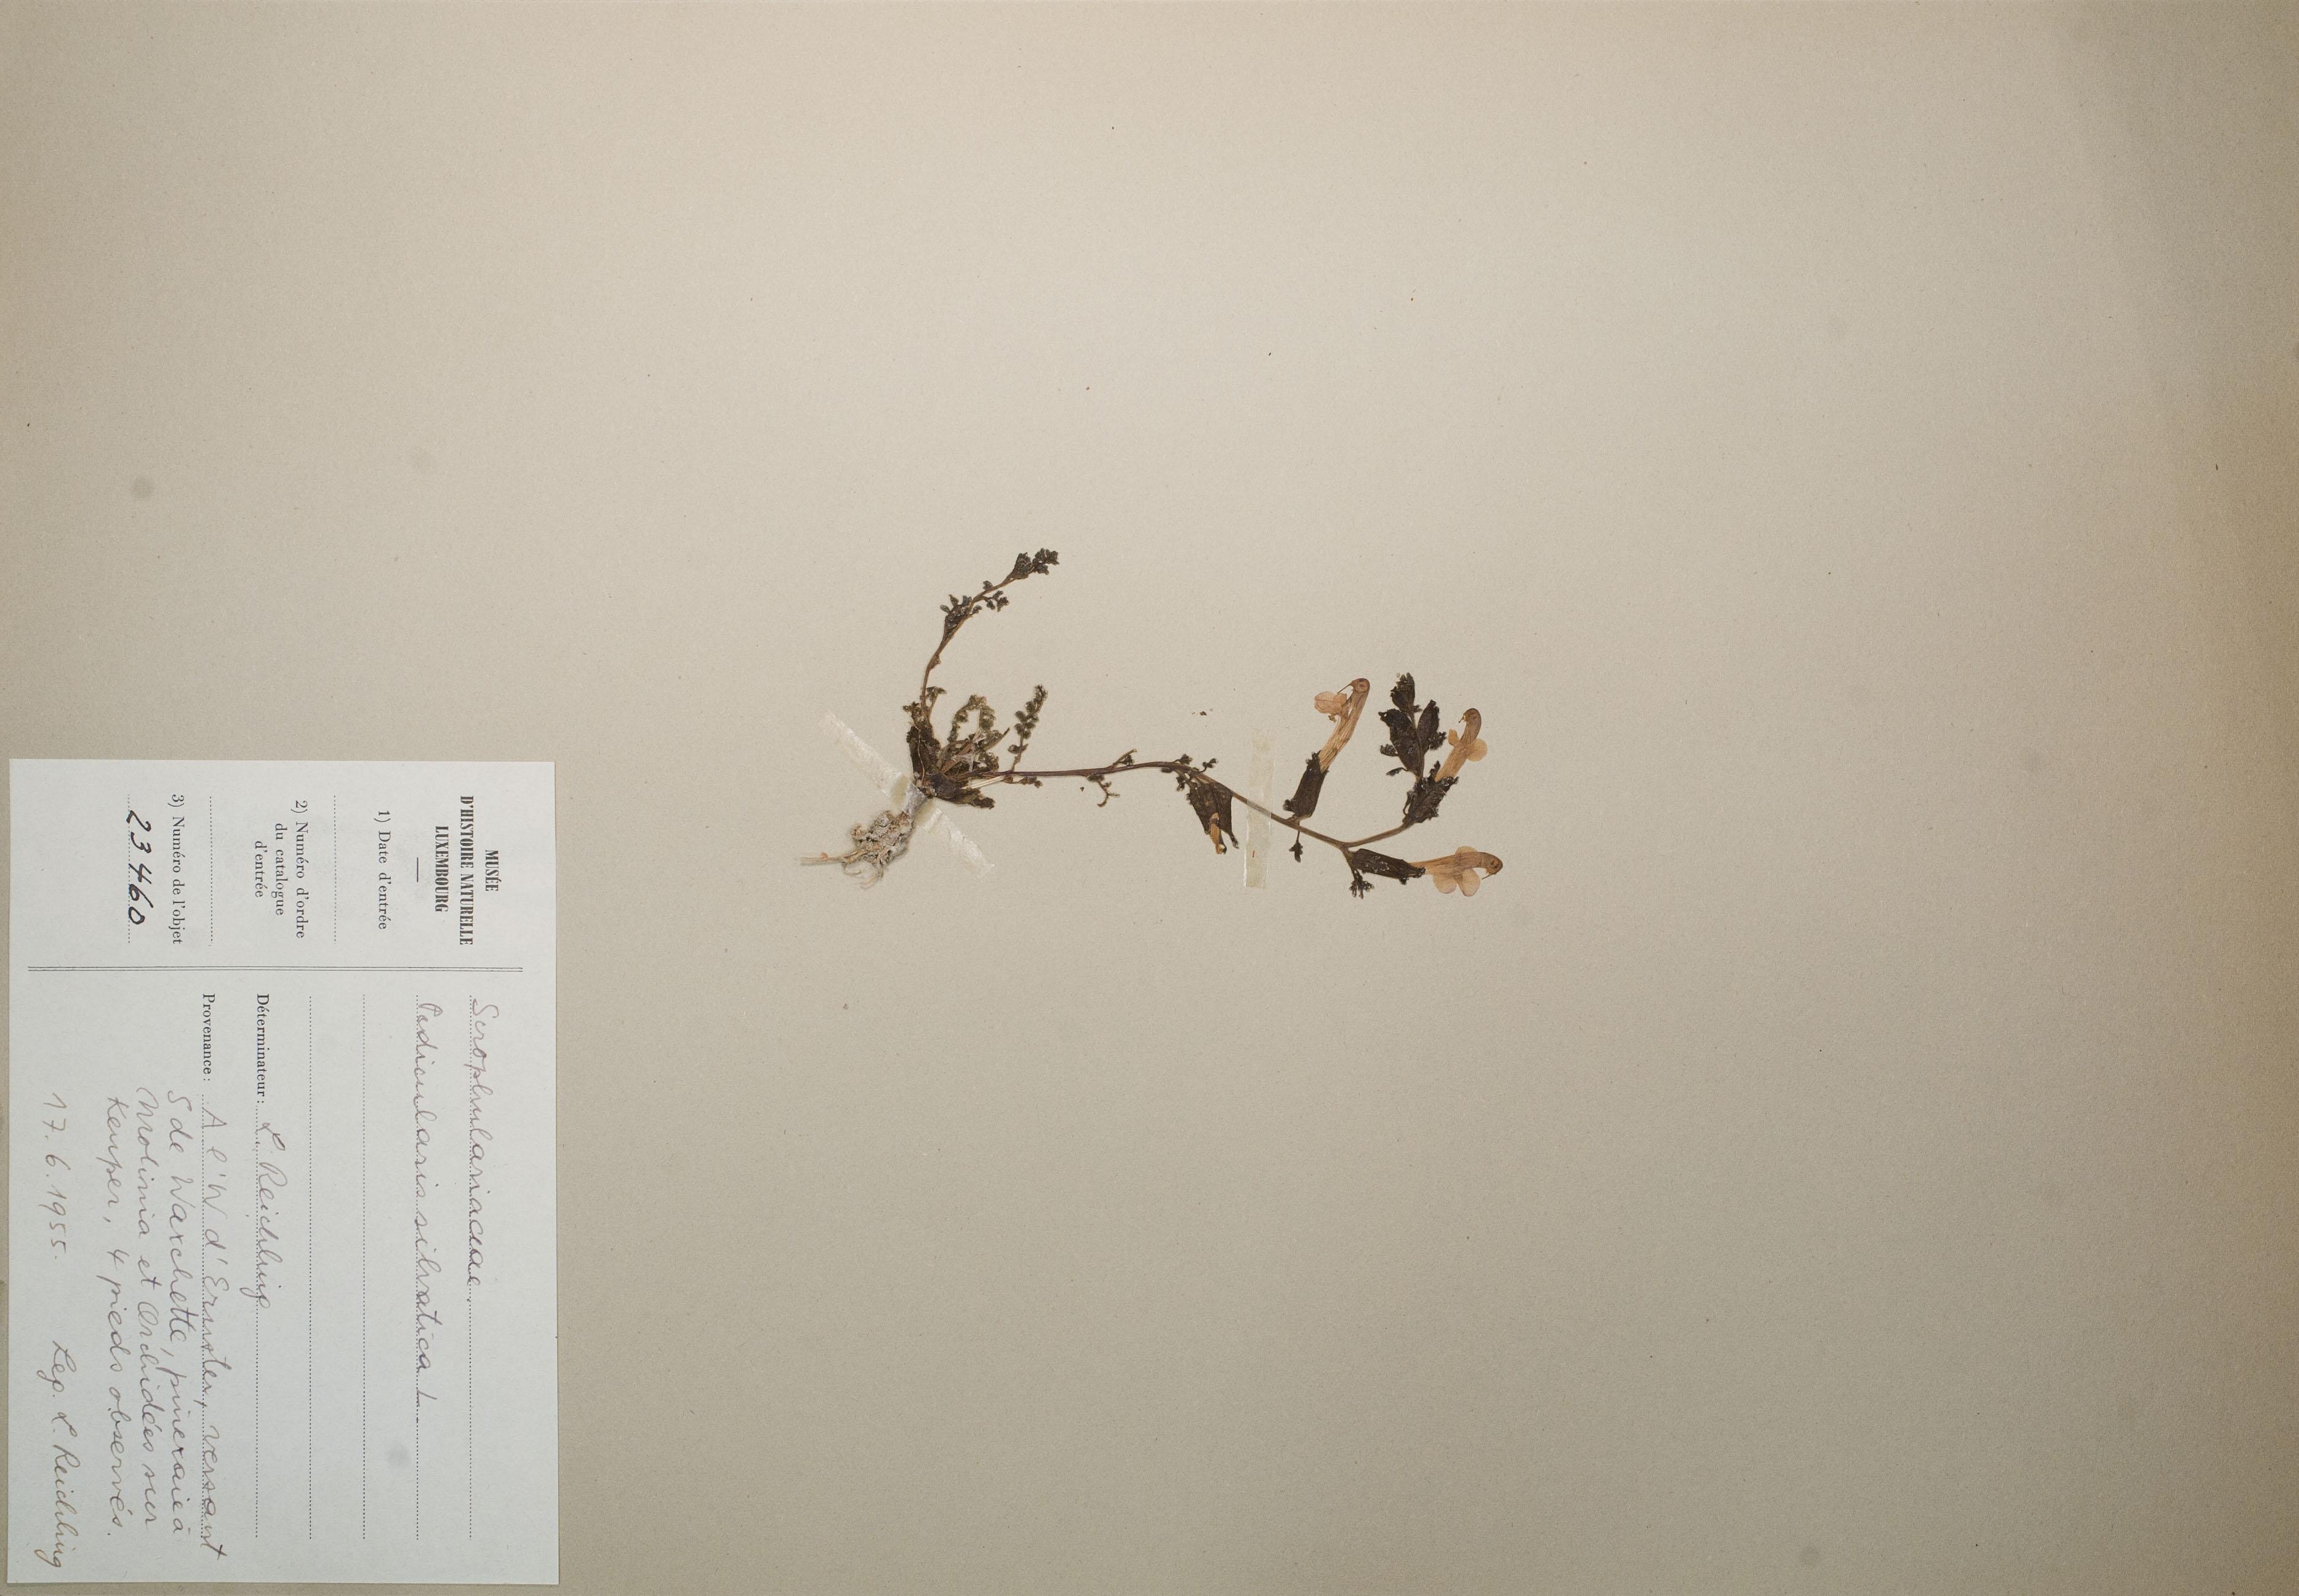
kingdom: Plantae
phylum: Tracheophyta
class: Magnoliopsida
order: Lamiales
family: Orobanchaceae
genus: Pedicularis
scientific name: Pedicularis sylvatica
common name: Lousewort
